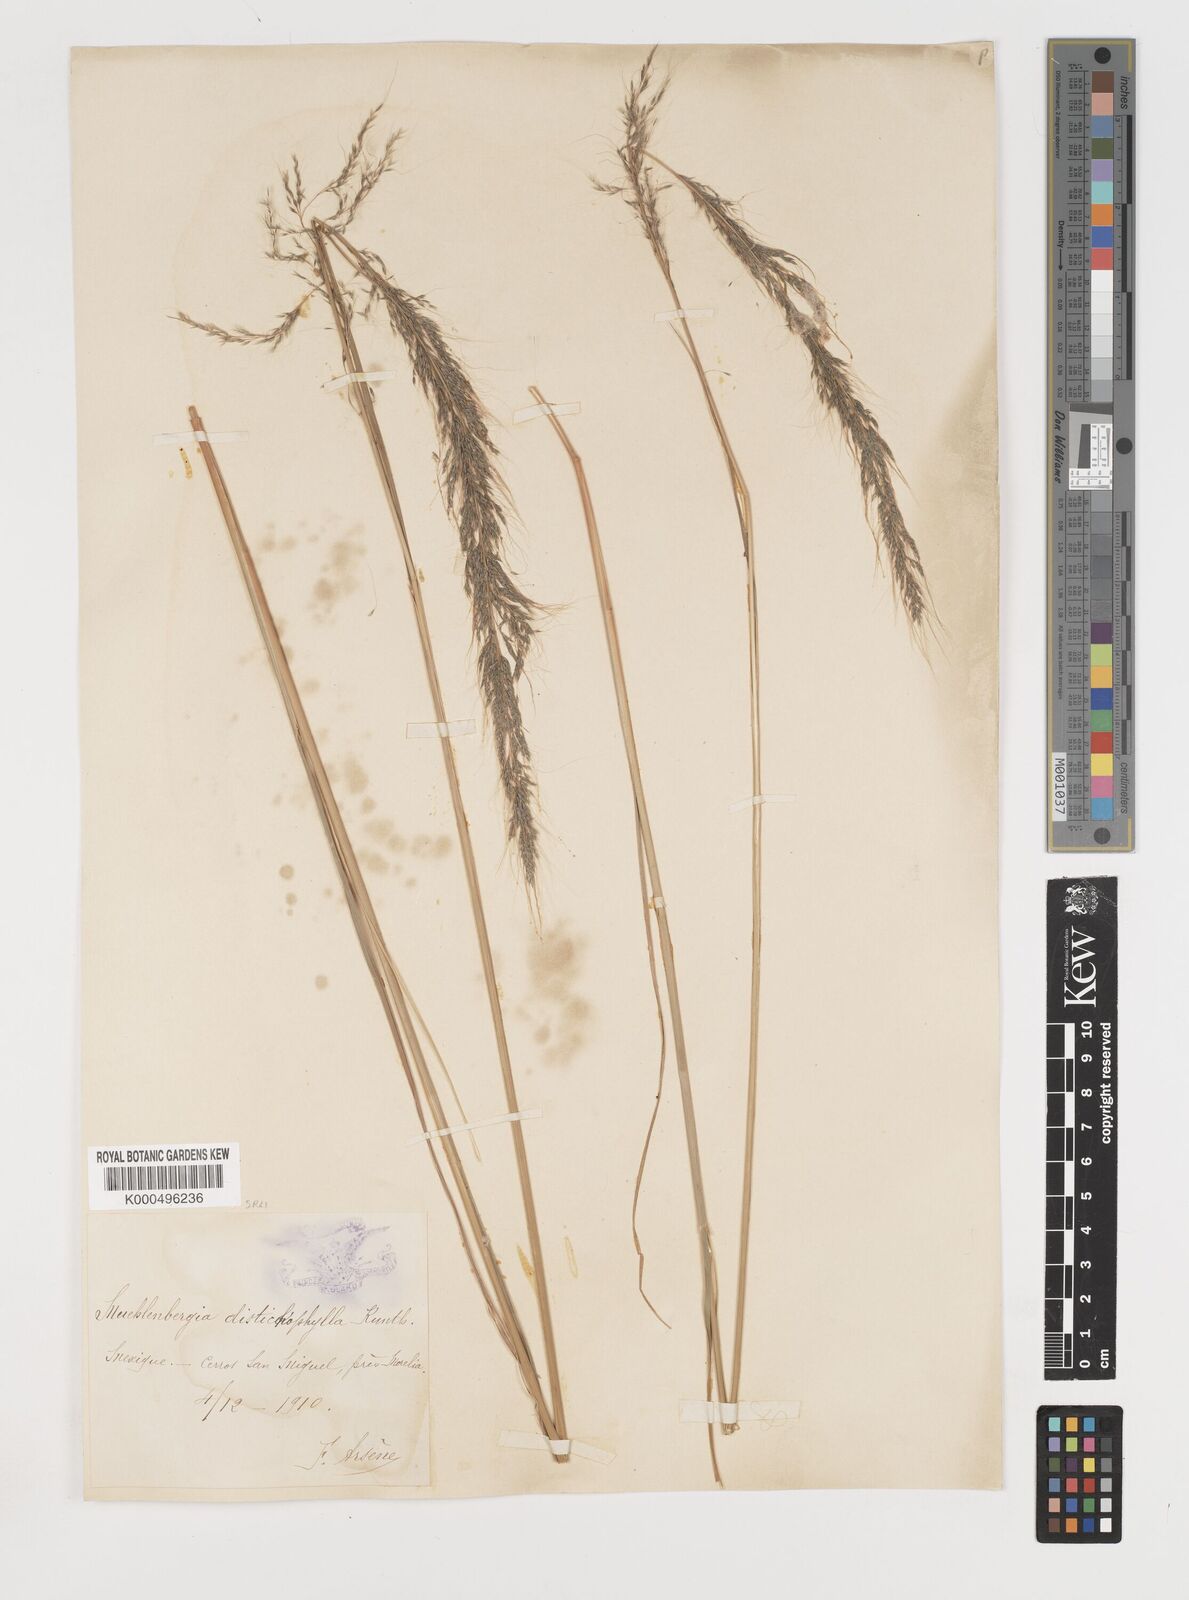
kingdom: Plantae
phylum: Tracheophyta
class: Liliopsida
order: Poales
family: Poaceae
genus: Muhlenbergia
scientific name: Muhlenbergia
